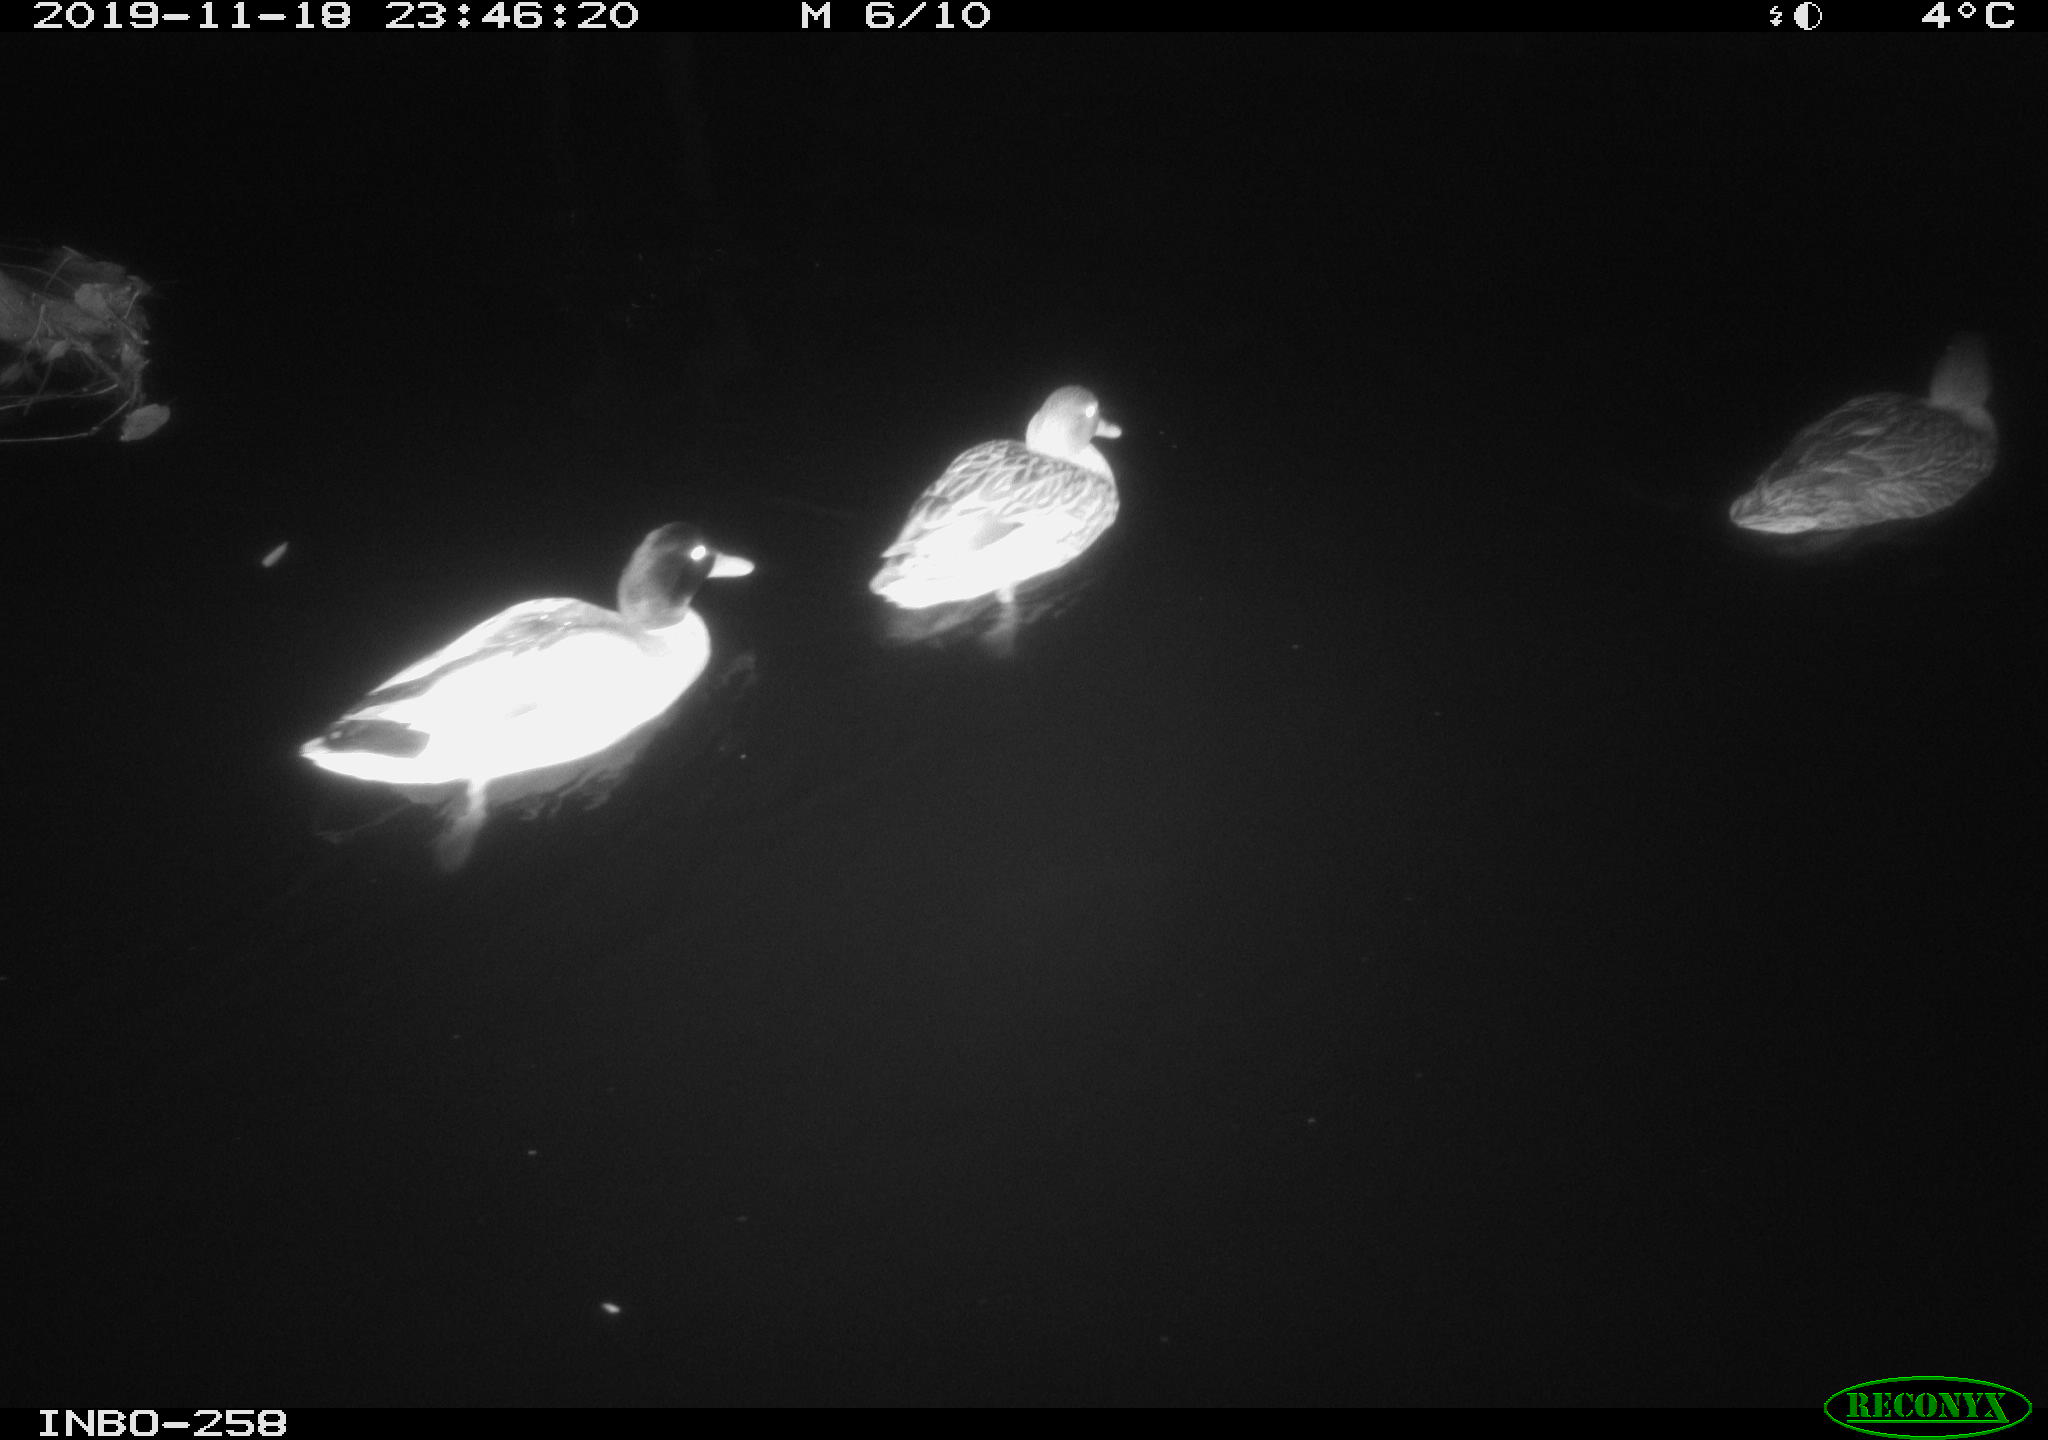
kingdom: Animalia
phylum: Chordata
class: Aves
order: Anseriformes
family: Anatidae
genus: Anas
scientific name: Anas platyrhynchos
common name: Mallard
